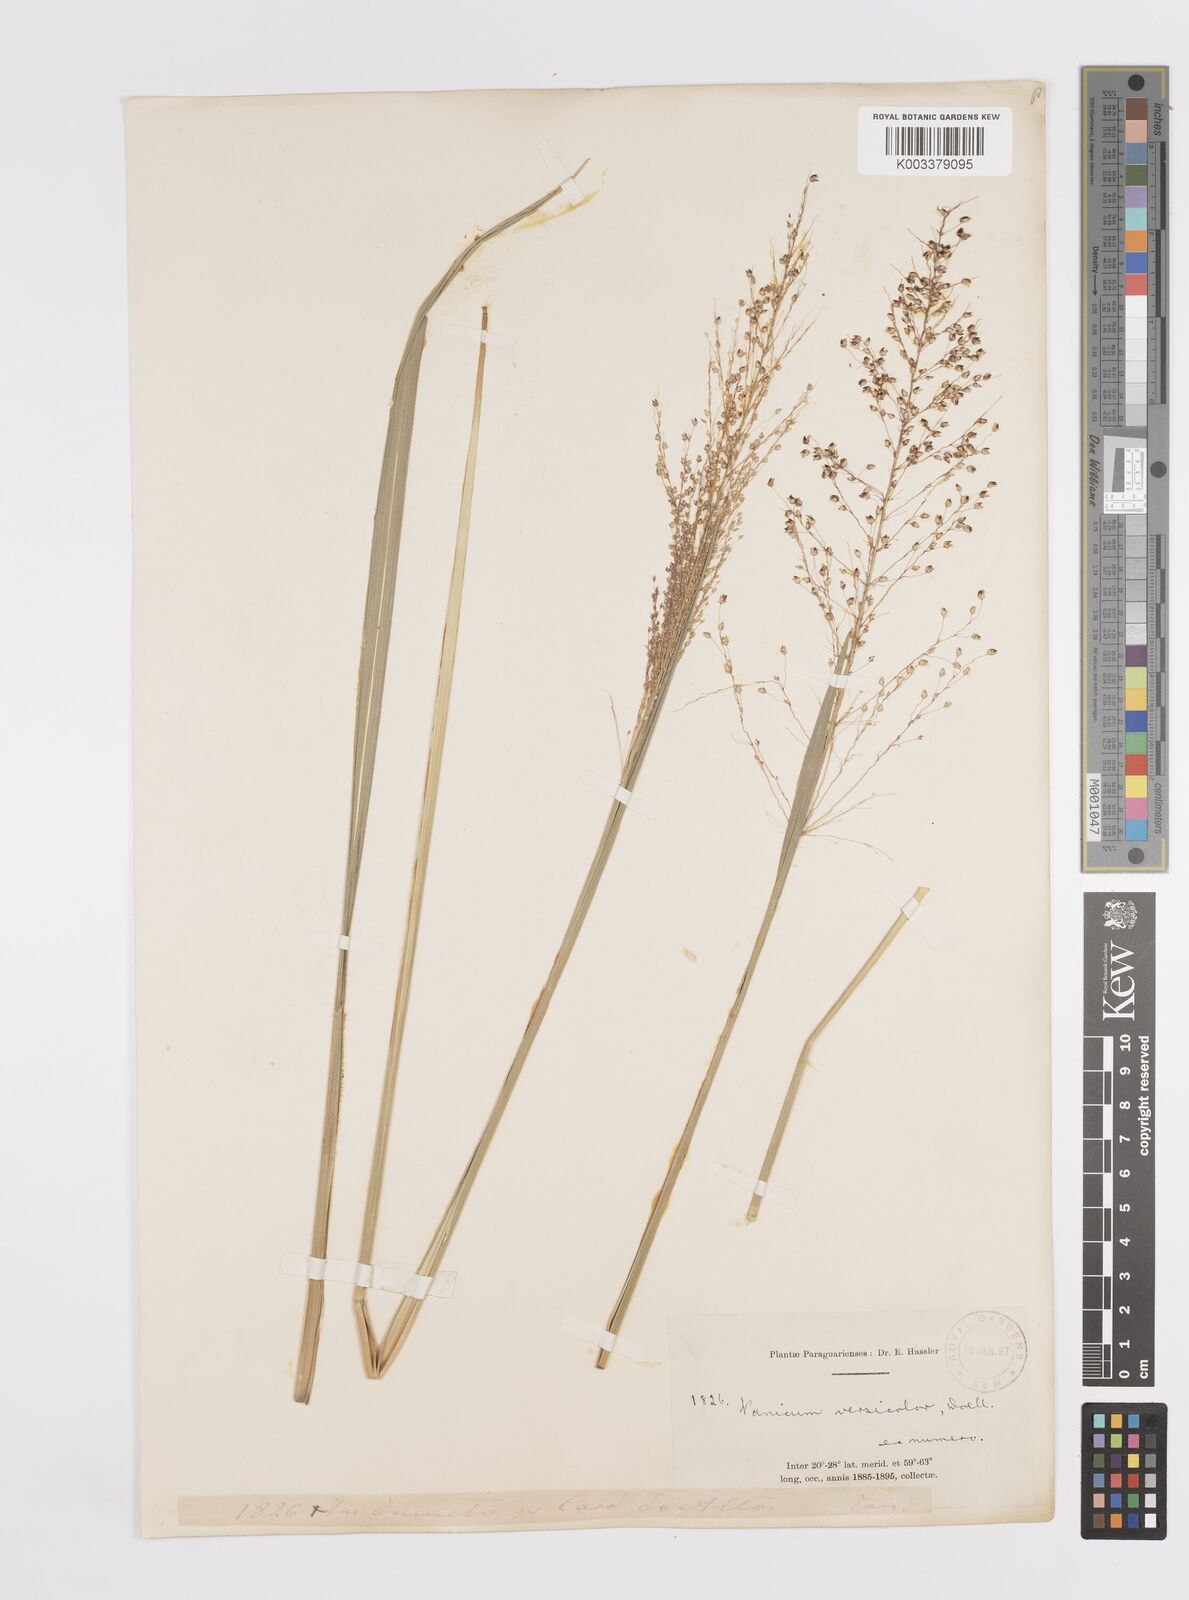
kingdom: Plantae
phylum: Tracheophyta
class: Liliopsida
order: Poales
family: Poaceae
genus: Otachyrium
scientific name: Otachyrium versicolor
